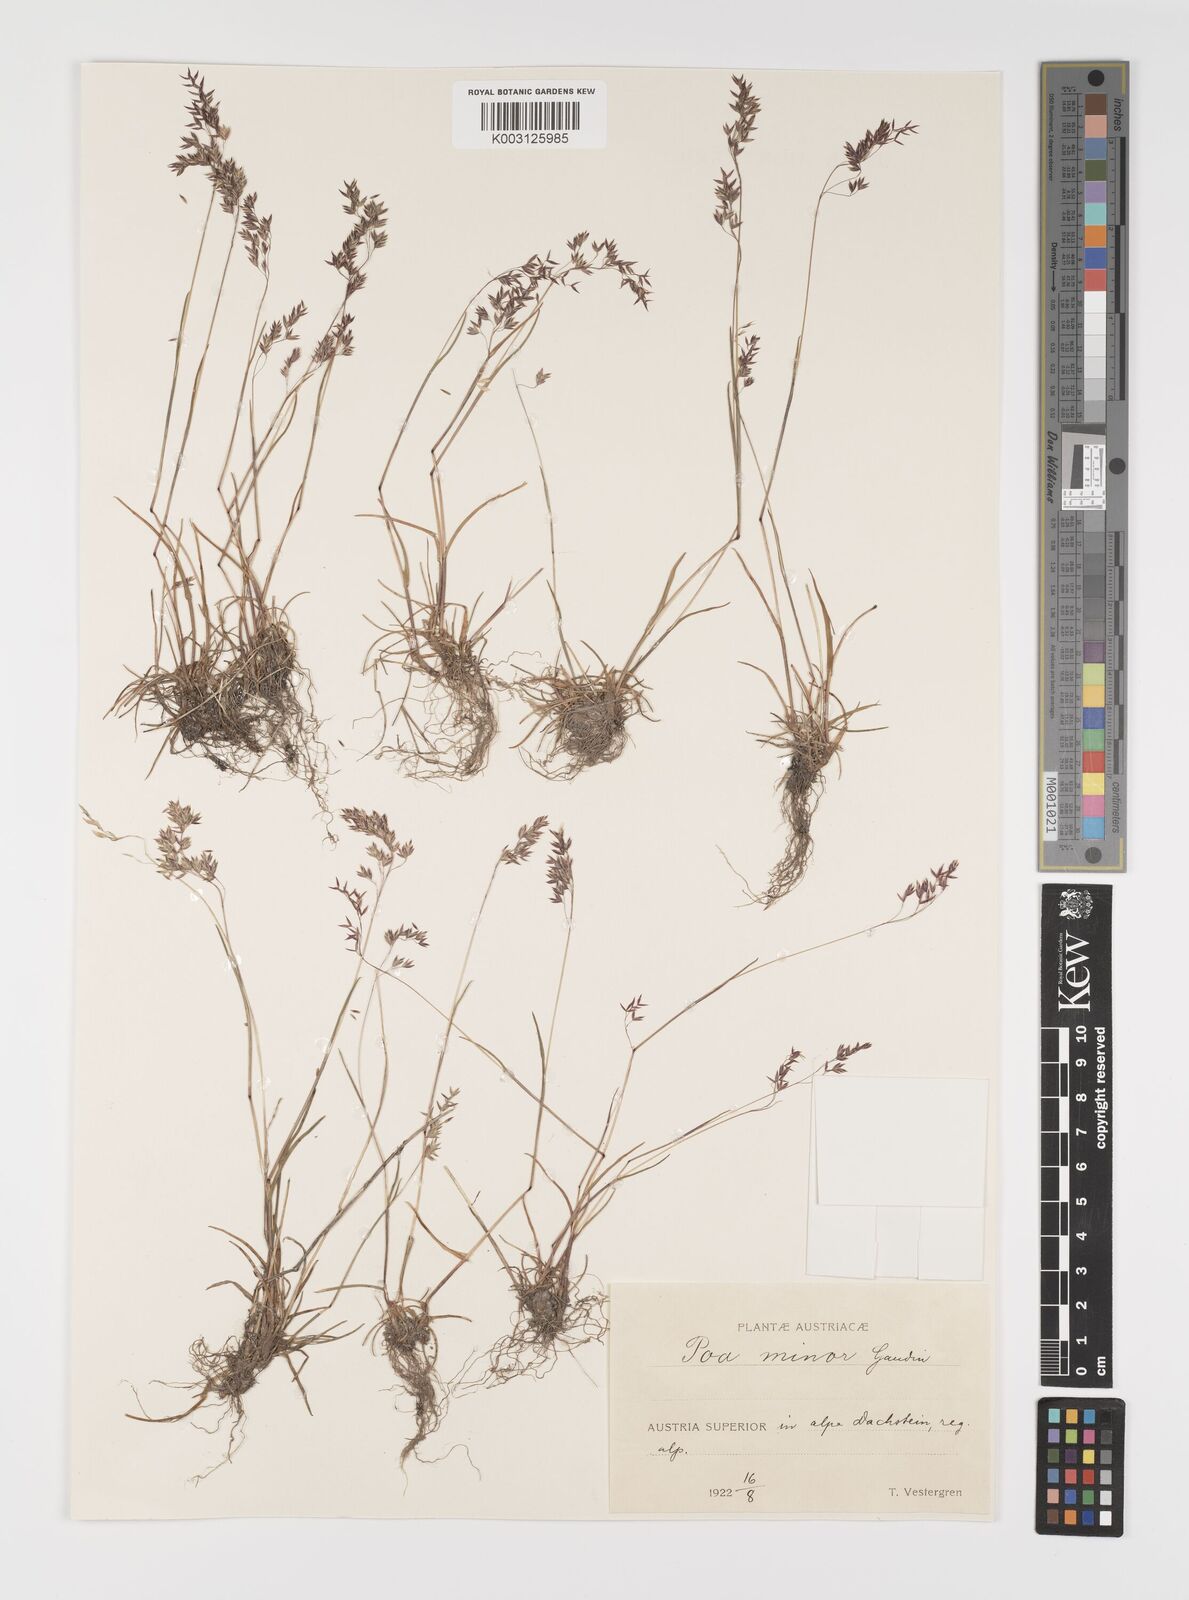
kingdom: Plantae
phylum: Tracheophyta
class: Liliopsida
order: Poales
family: Poaceae
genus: Poa
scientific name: Poa minor
